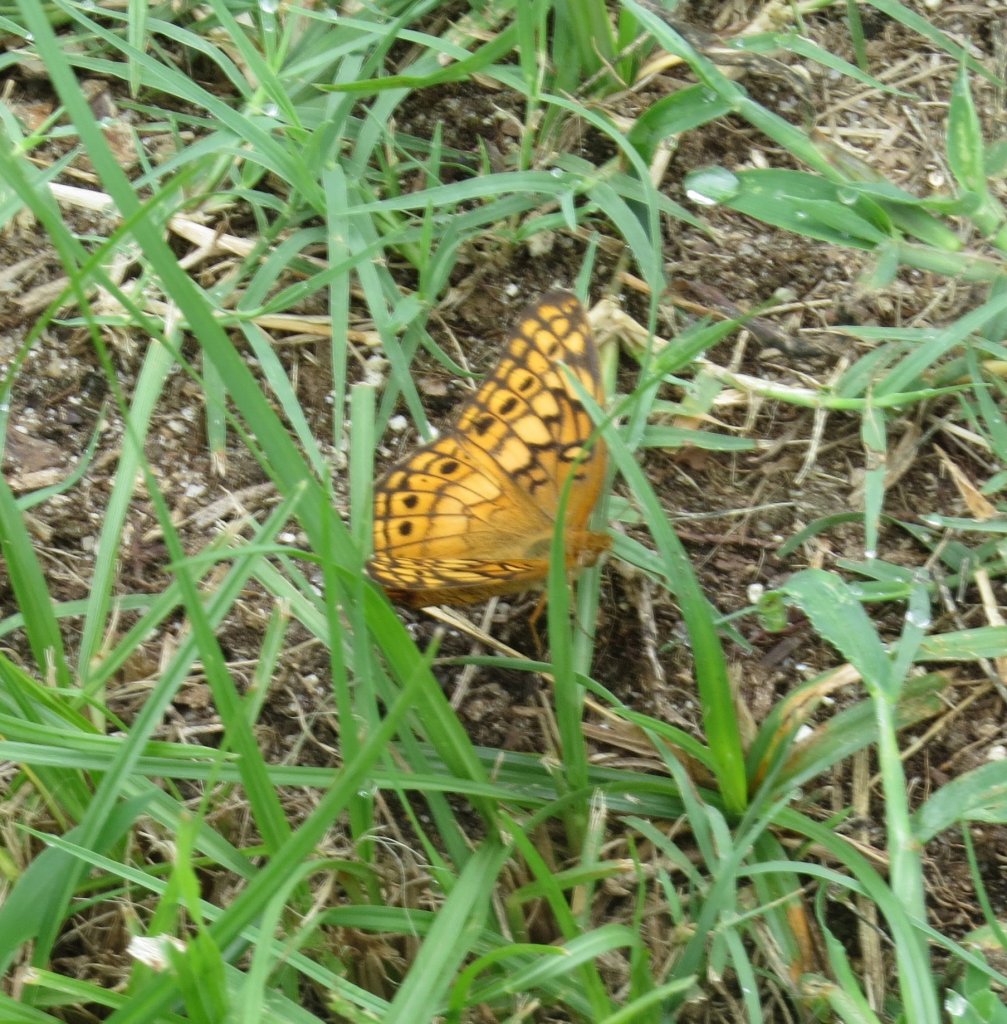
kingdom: Animalia
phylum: Arthropoda
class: Insecta
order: Lepidoptera
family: Nymphalidae
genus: Euptoieta
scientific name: Euptoieta claudia
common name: Variegated Fritillary
